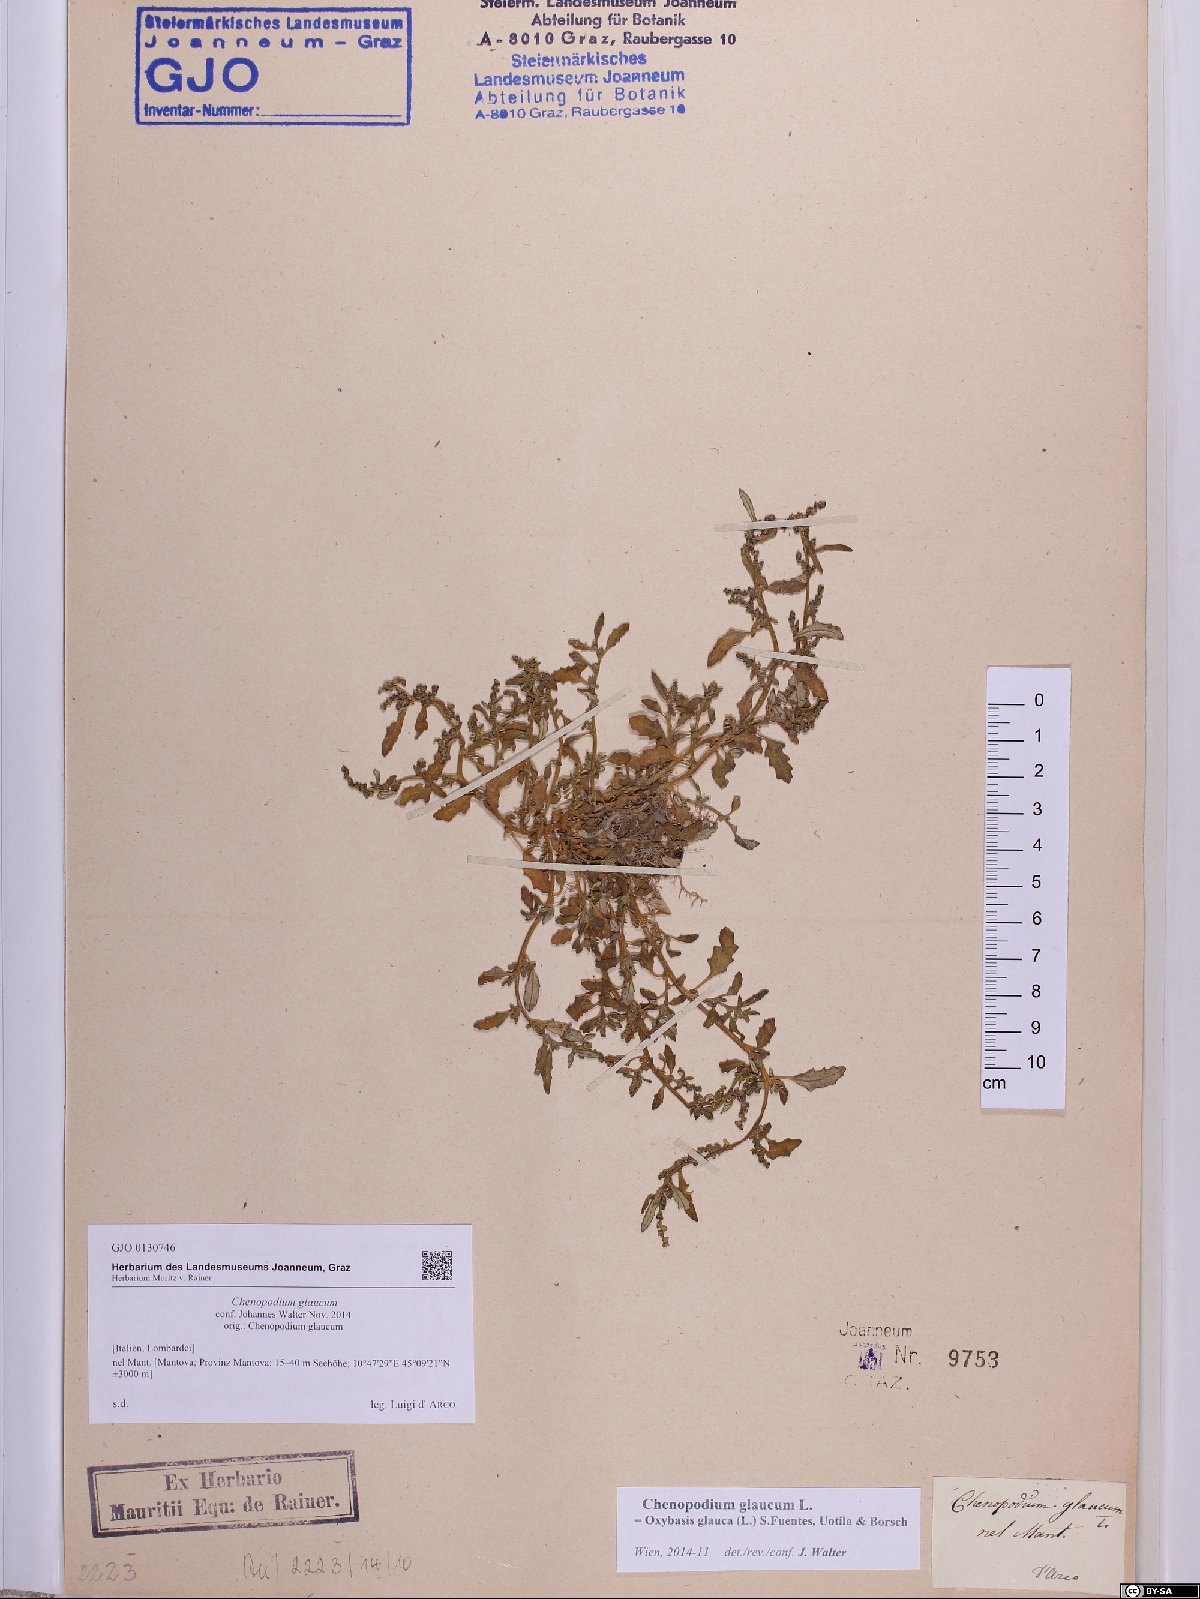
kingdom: Plantae
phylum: Tracheophyta
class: Magnoliopsida
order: Caryophyllales
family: Amaranthaceae
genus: Oxybasis
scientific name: Oxybasis glauca
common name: Glaucous goosefoot
